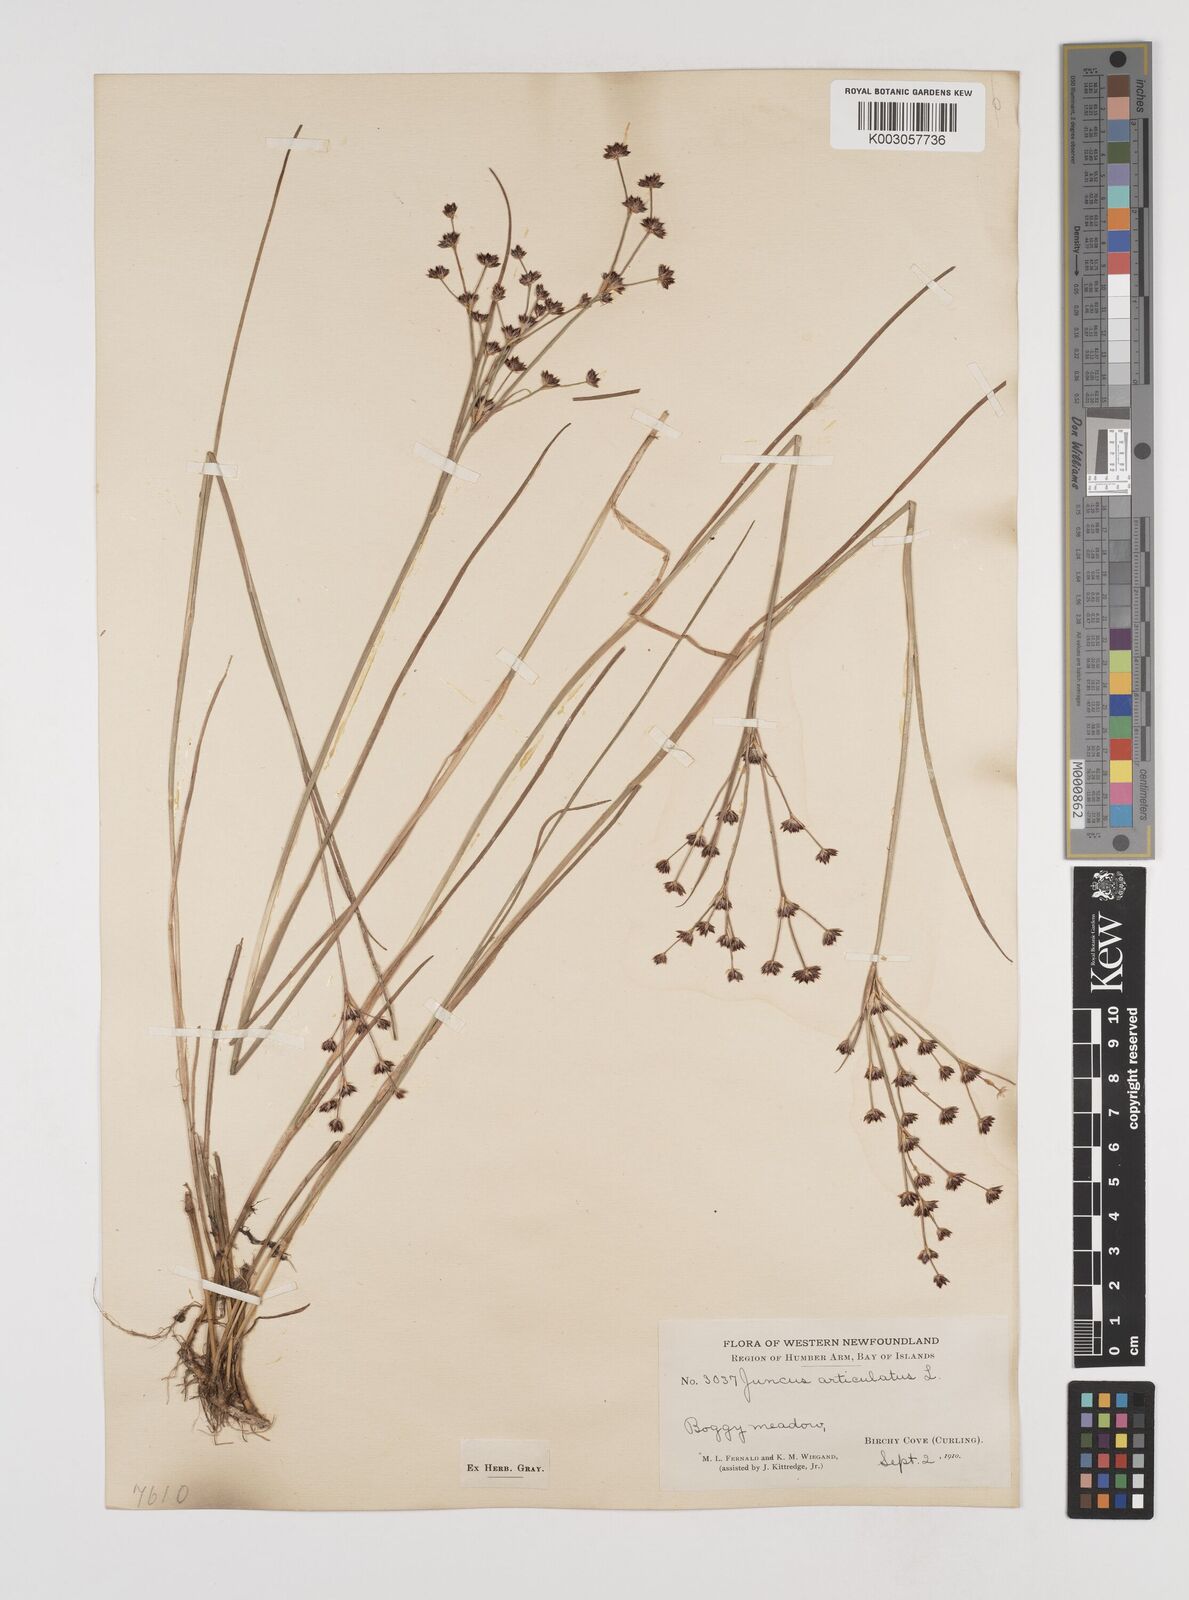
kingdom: Plantae
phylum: Tracheophyta
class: Liliopsida
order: Poales
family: Juncaceae
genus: Juncus
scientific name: Juncus articulatus
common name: Jointed rush
